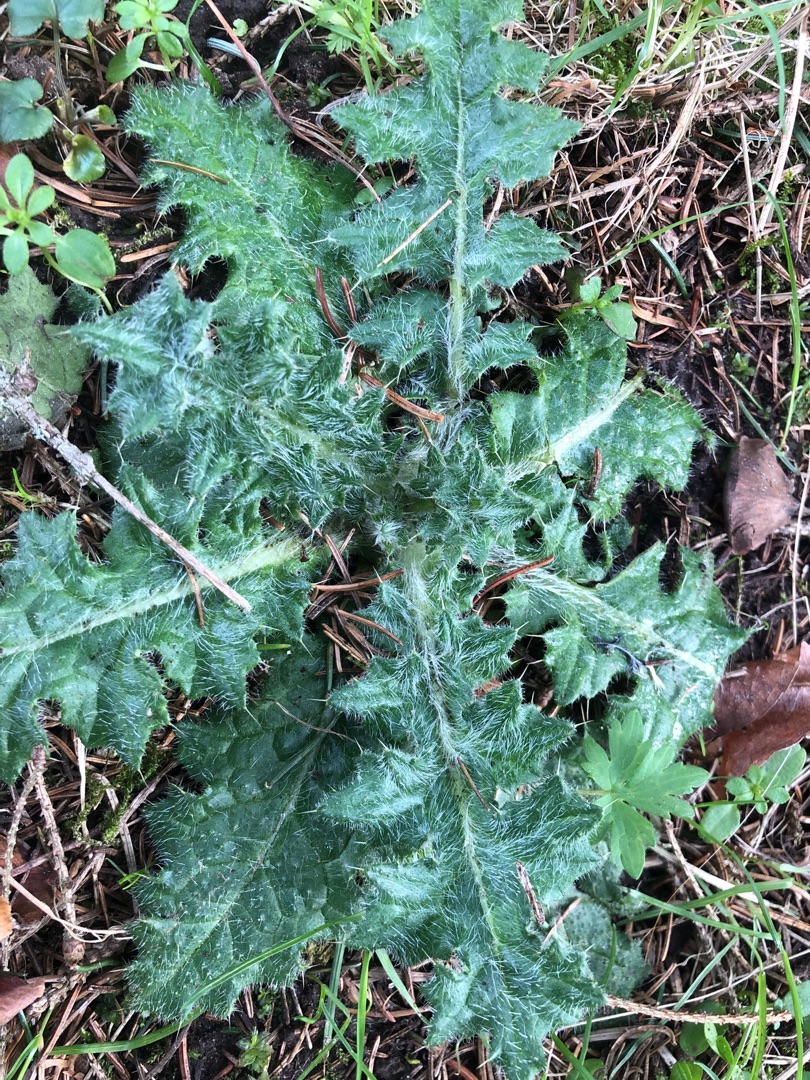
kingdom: Plantae
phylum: Tracheophyta
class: Magnoliopsida
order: Asterales
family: Asteraceae
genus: Cirsium
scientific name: Cirsium vulgare
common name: Horse-tidsel
